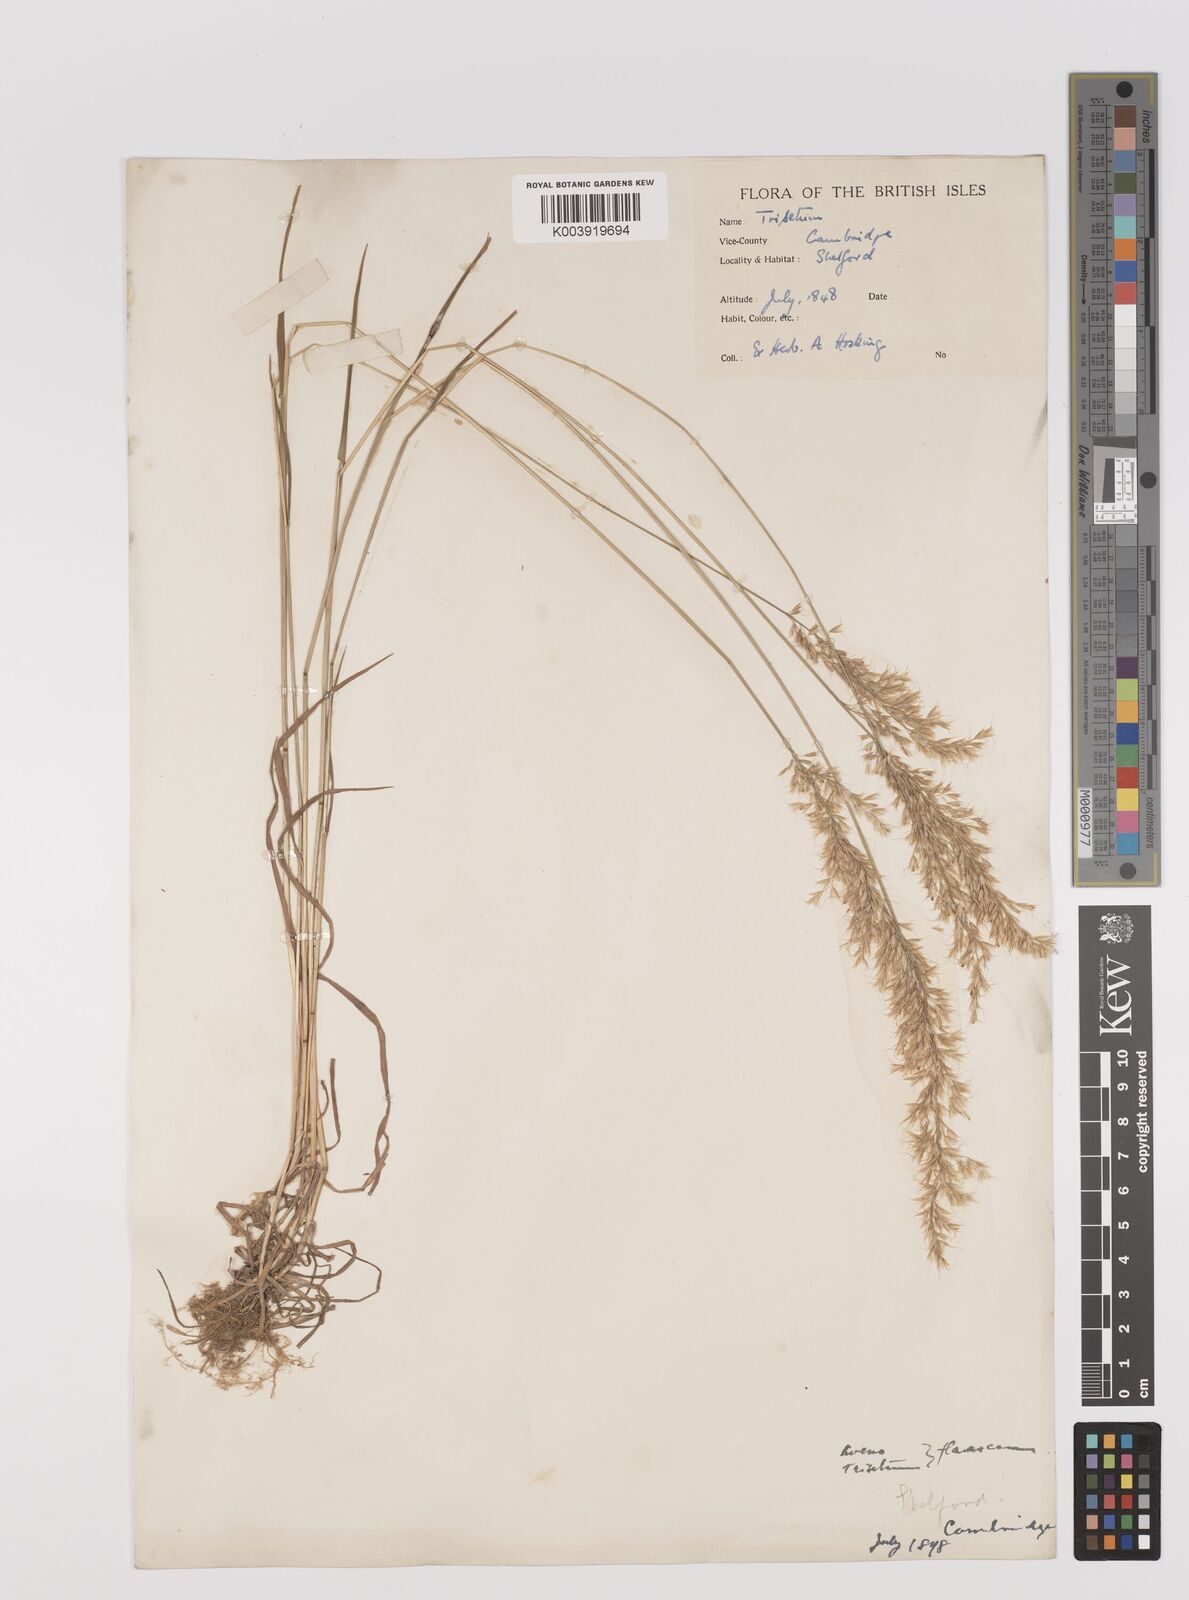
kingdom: Plantae
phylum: Tracheophyta
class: Liliopsida
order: Poales
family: Poaceae
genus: Trisetum
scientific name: Trisetum flavescens
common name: Yellow oat-grass
